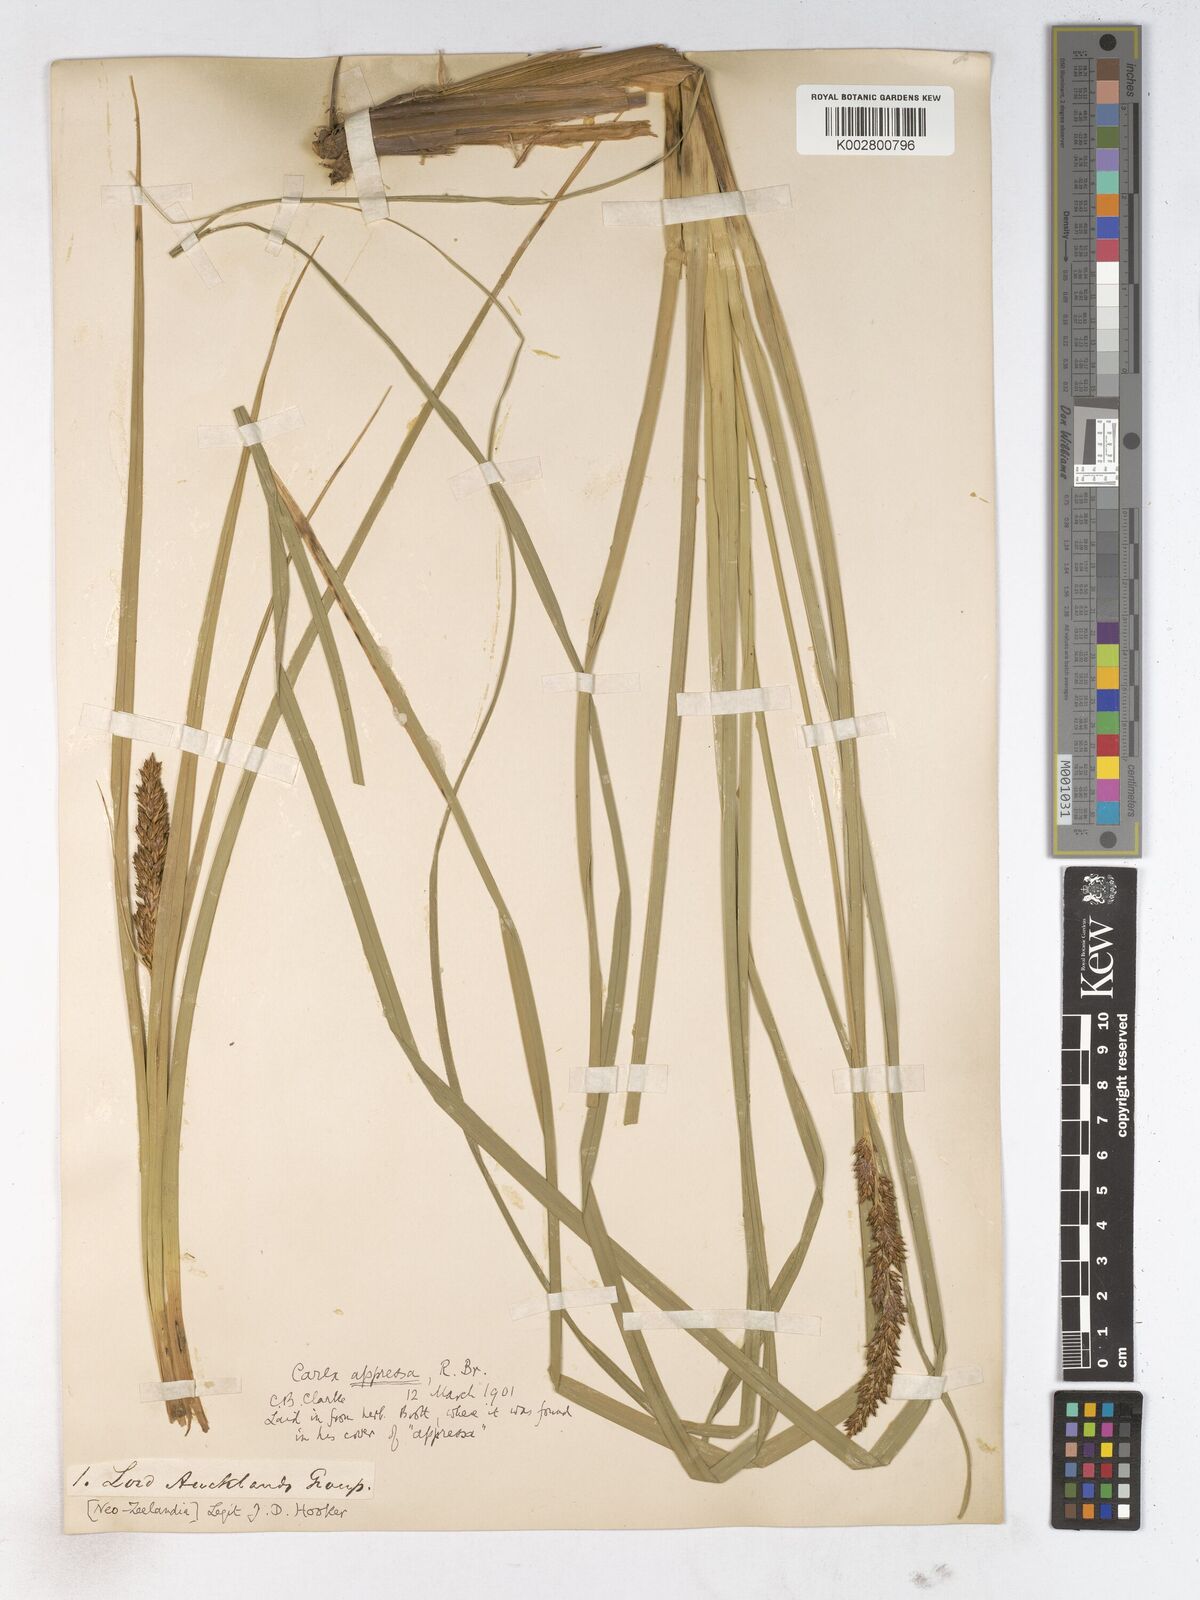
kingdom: Plantae
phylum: Tracheophyta
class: Liliopsida
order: Poales
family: Cyperaceae
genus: Carex
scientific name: Carex appressa
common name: Tussock sedge
